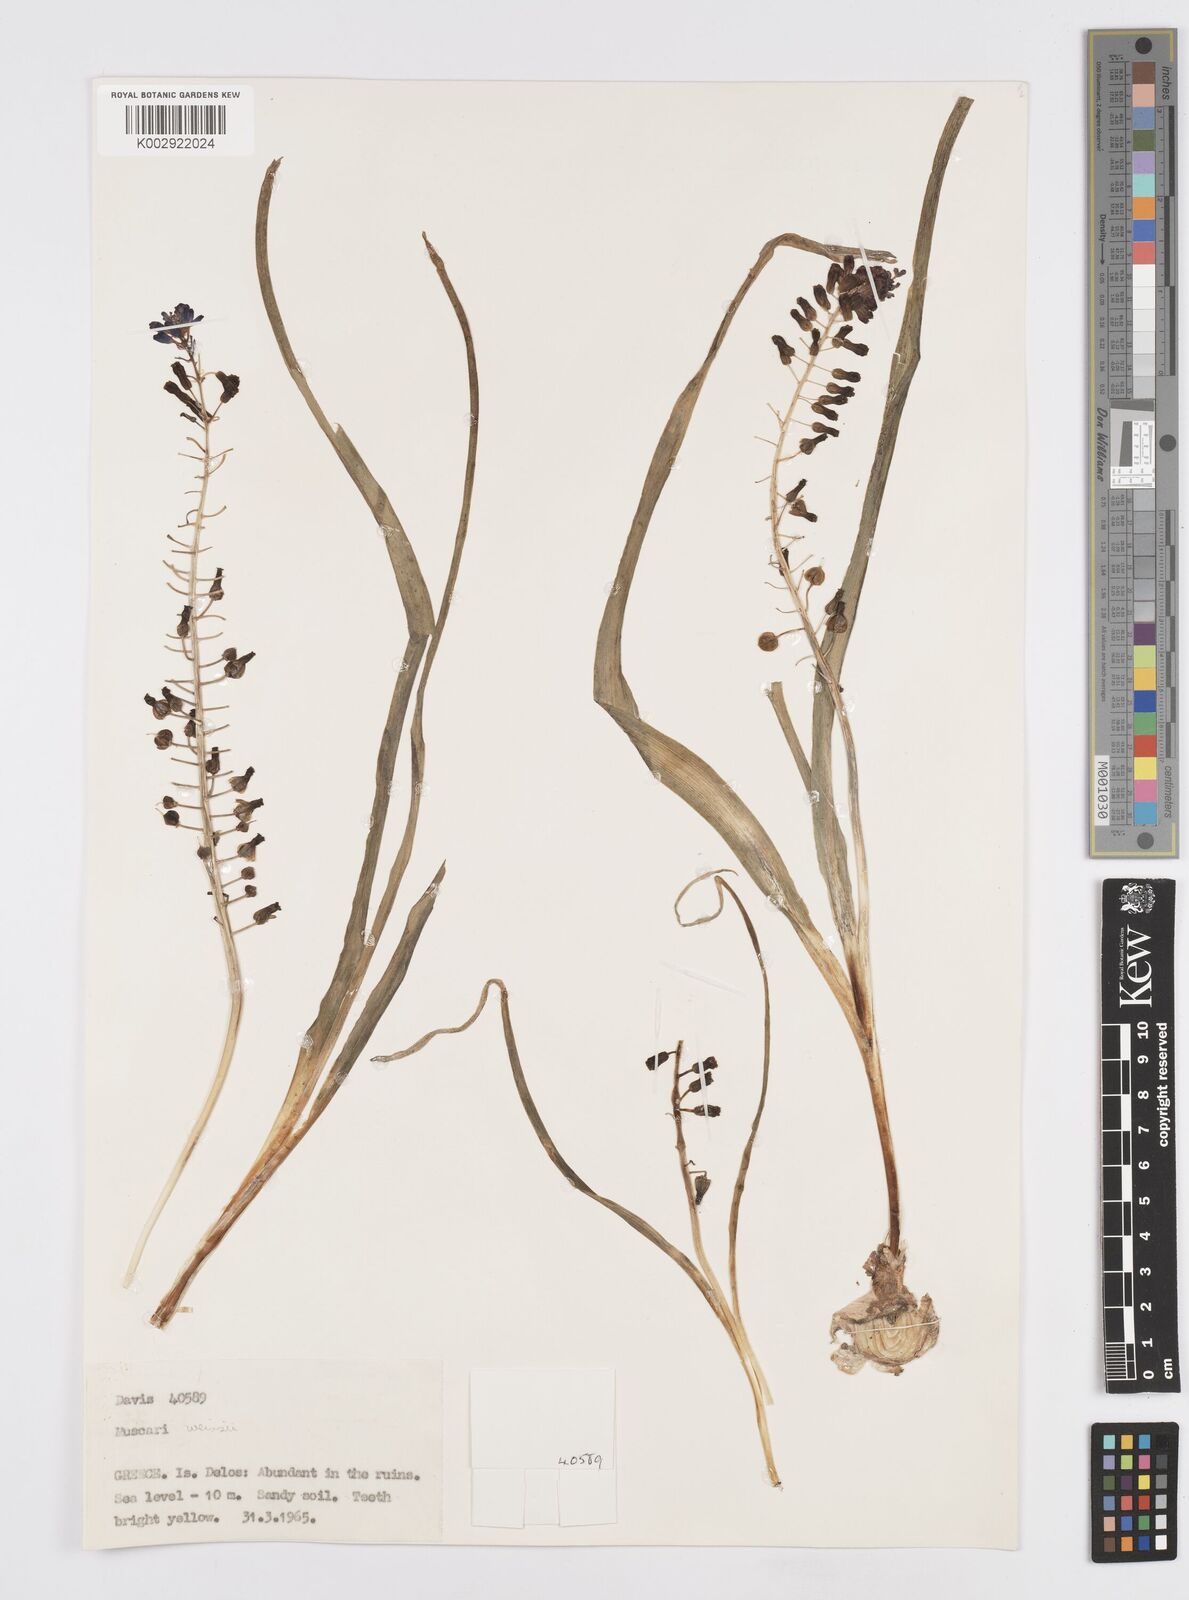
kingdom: Plantae
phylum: Tracheophyta
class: Liliopsida
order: Asparagales
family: Asparagaceae
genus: Muscari
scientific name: Muscari weissii
